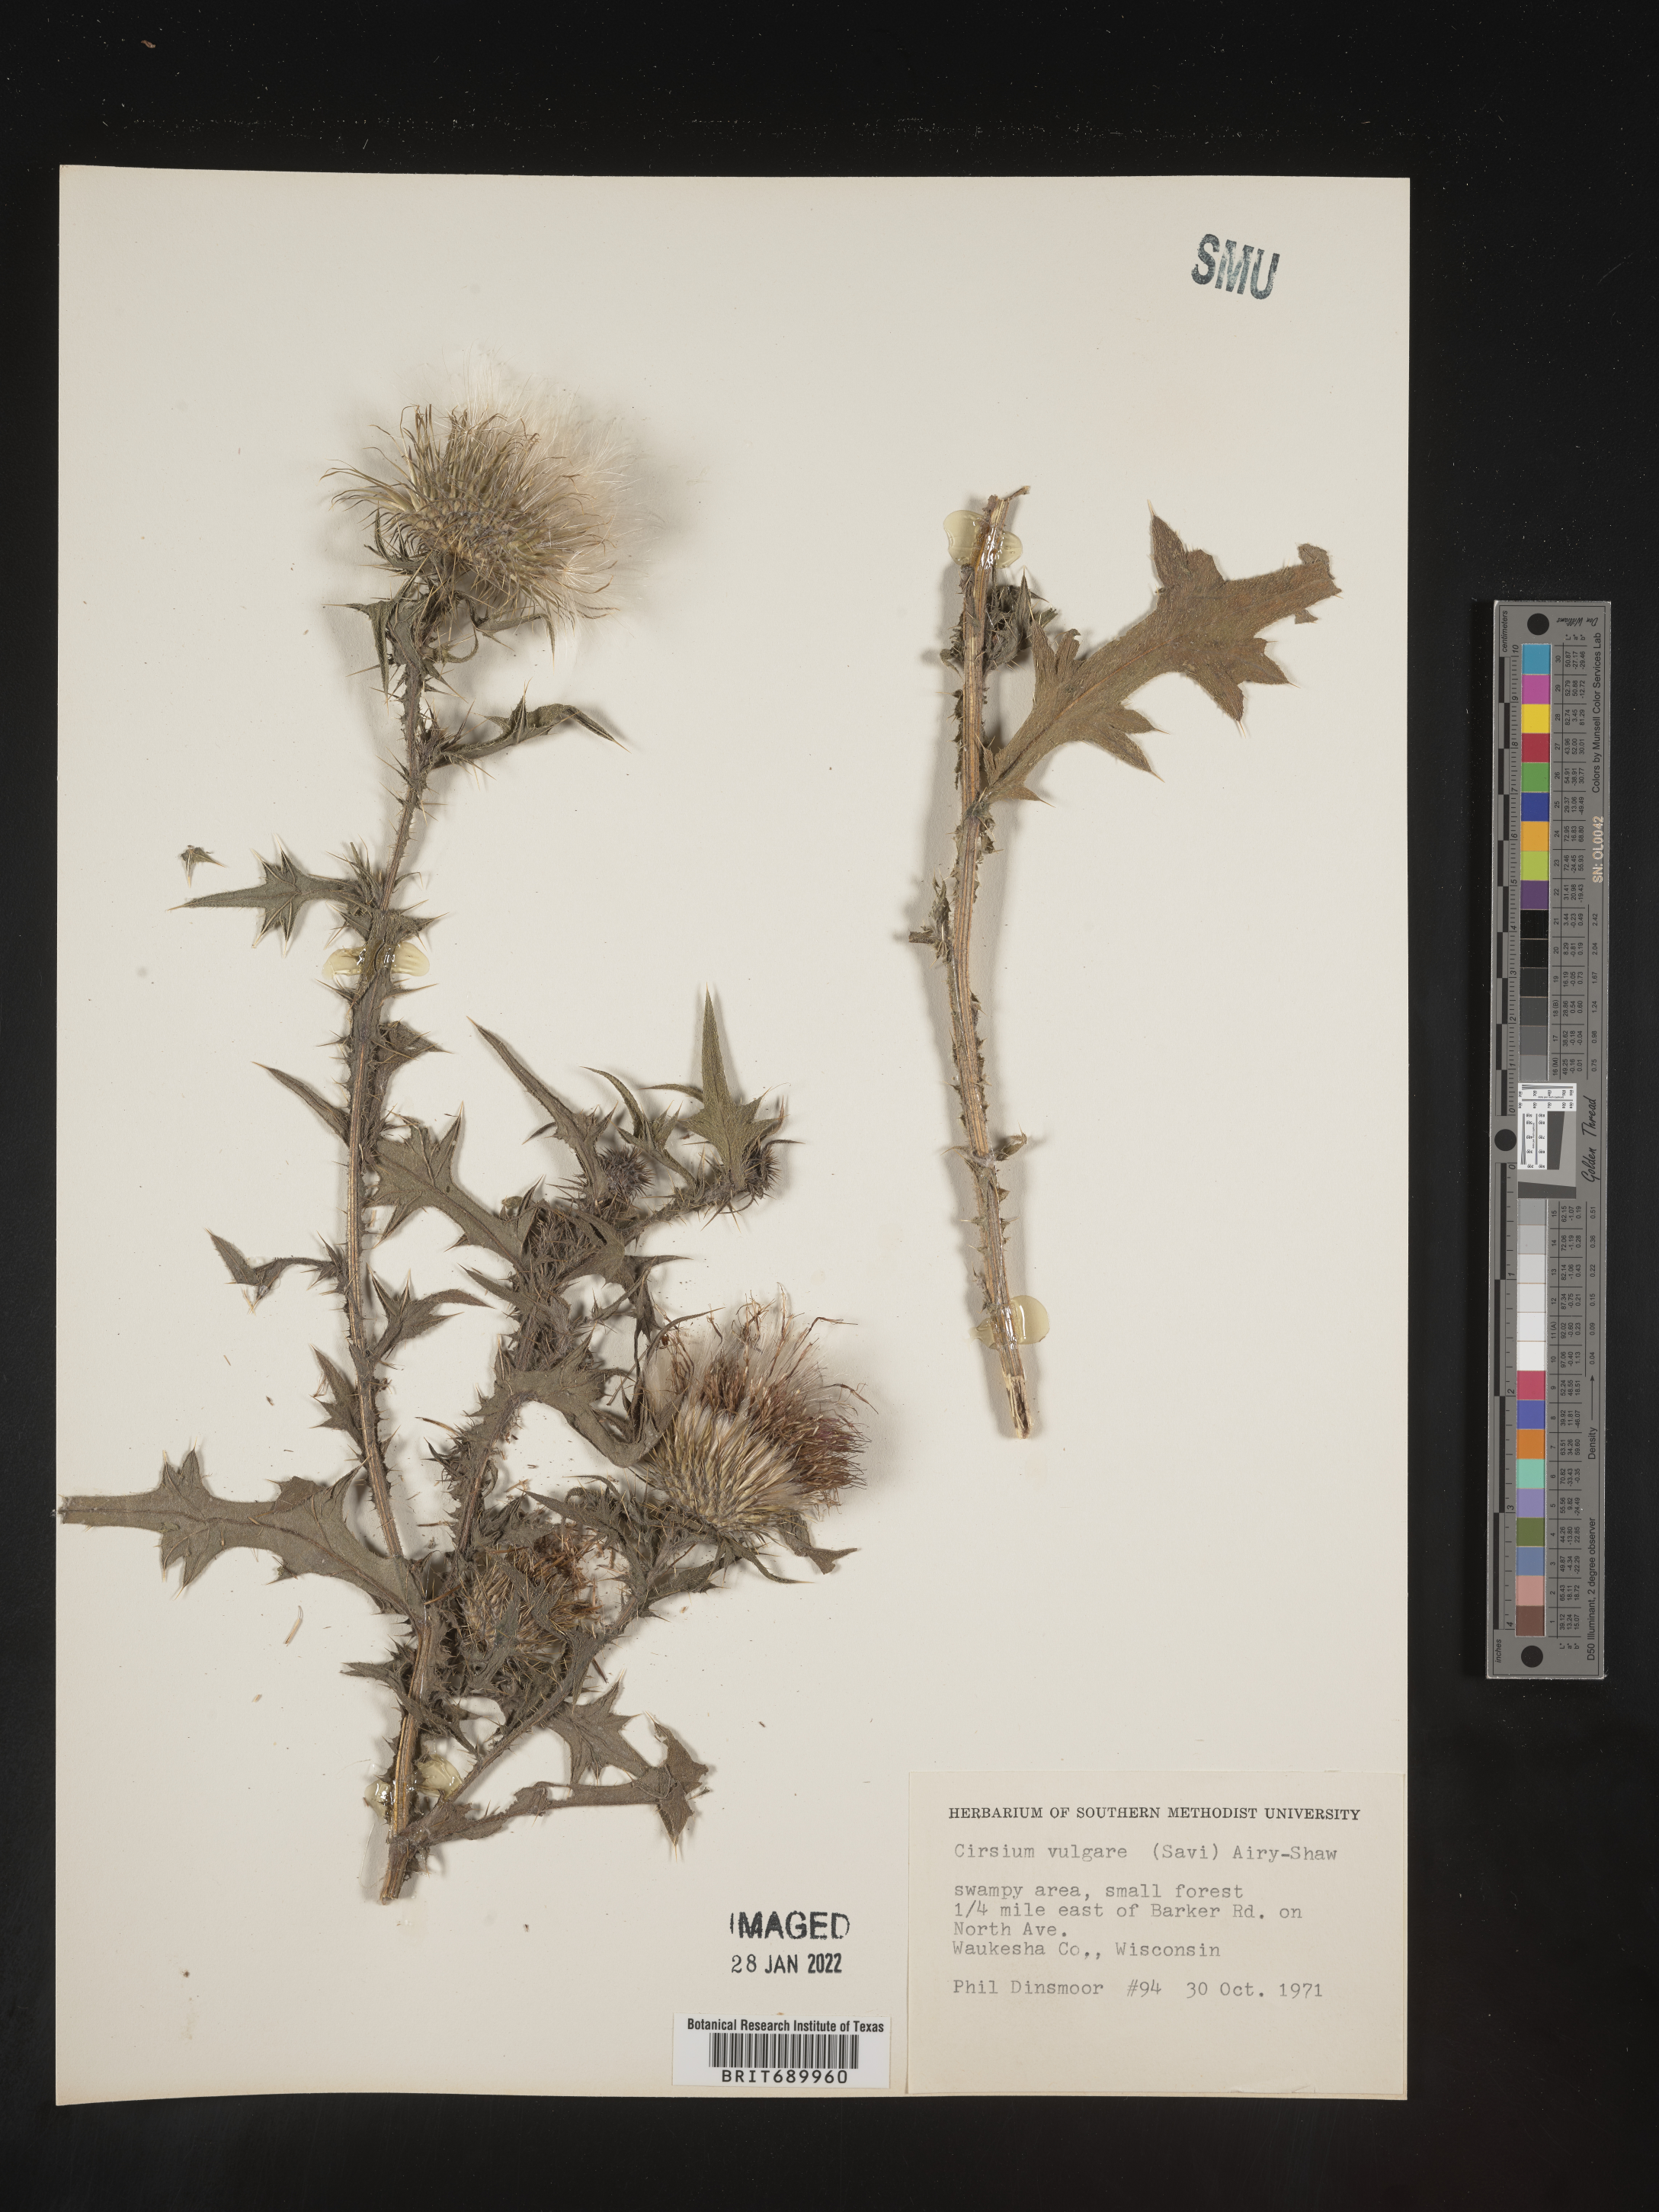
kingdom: Plantae
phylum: Tracheophyta
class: Magnoliopsida
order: Asterales
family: Asteraceae
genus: Cirsium
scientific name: Cirsium vulgare
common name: Bull thistle
